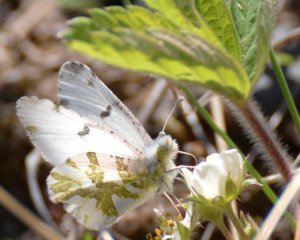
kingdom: Animalia
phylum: Arthropoda
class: Insecta
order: Lepidoptera
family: Pieridae
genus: Euchloe
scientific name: Euchloe olympia
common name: Olympia Marble
